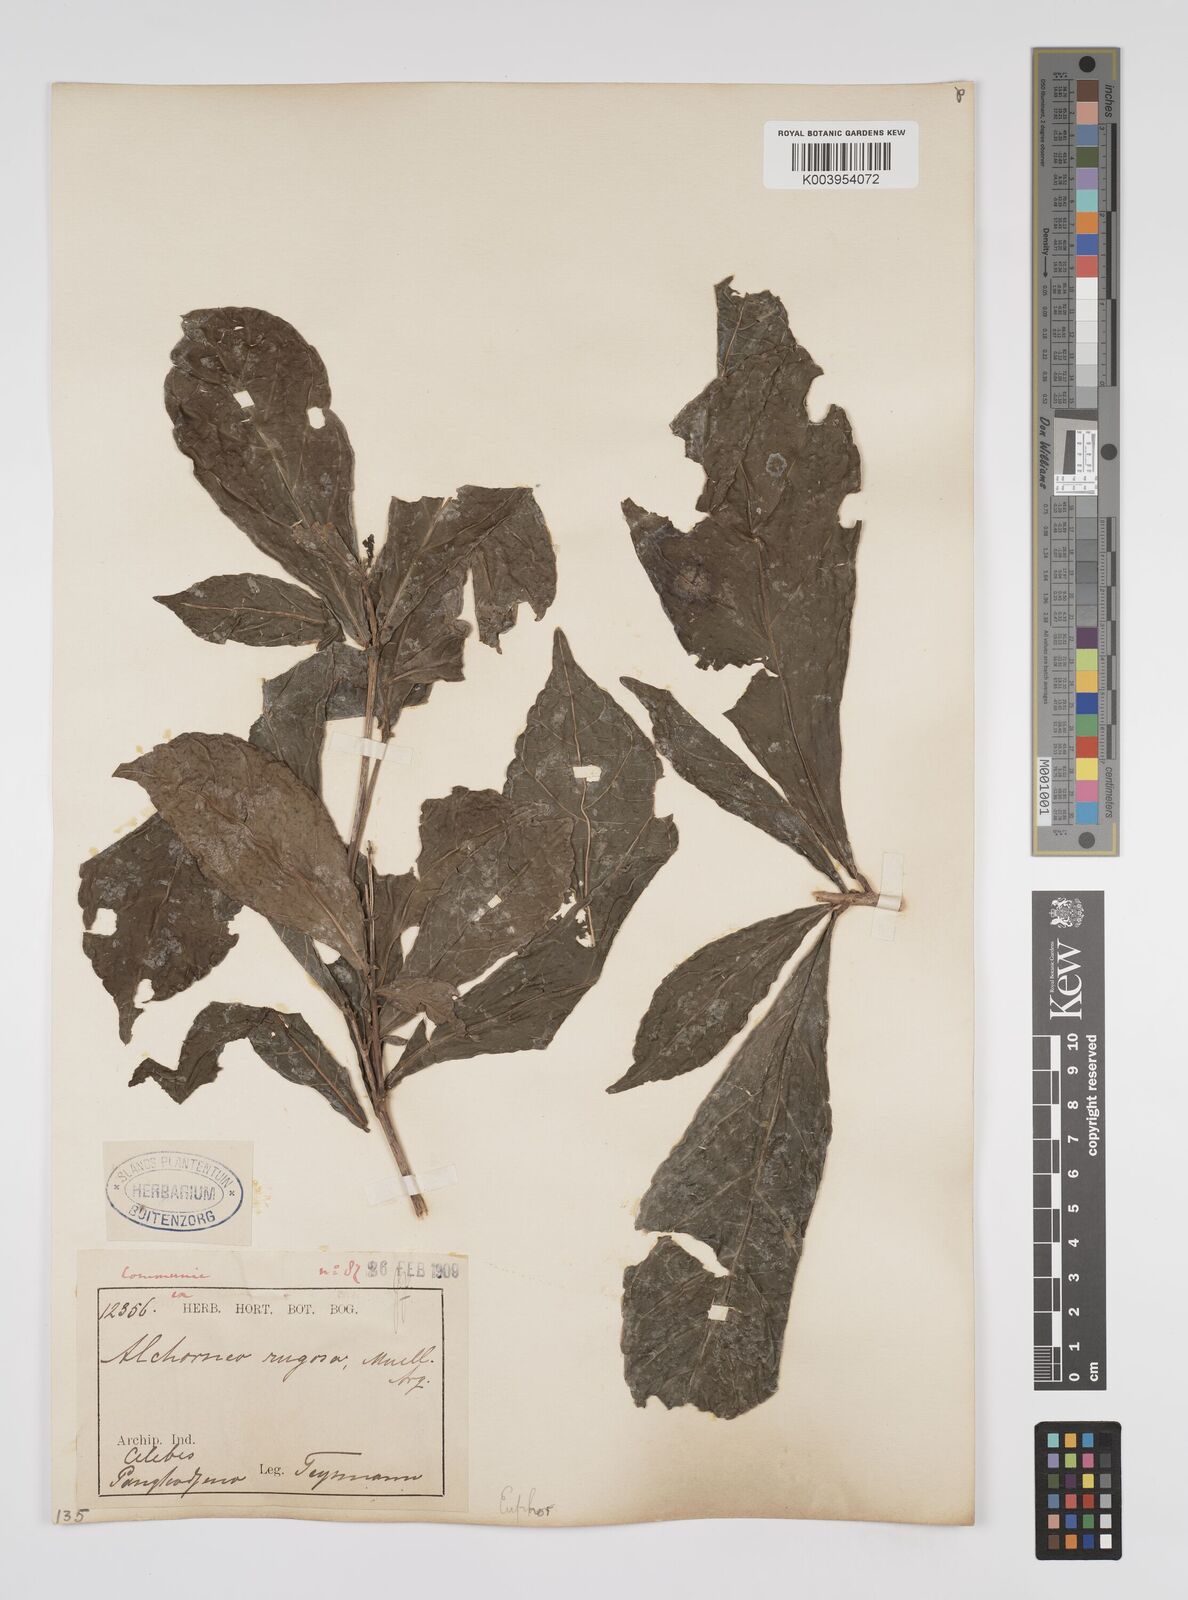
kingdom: Plantae
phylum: Tracheophyta
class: Magnoliopsida
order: Malpighiales
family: Euphorbiaceae
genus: Alchornea
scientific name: Alchornea rugosa
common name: Alchorntree
